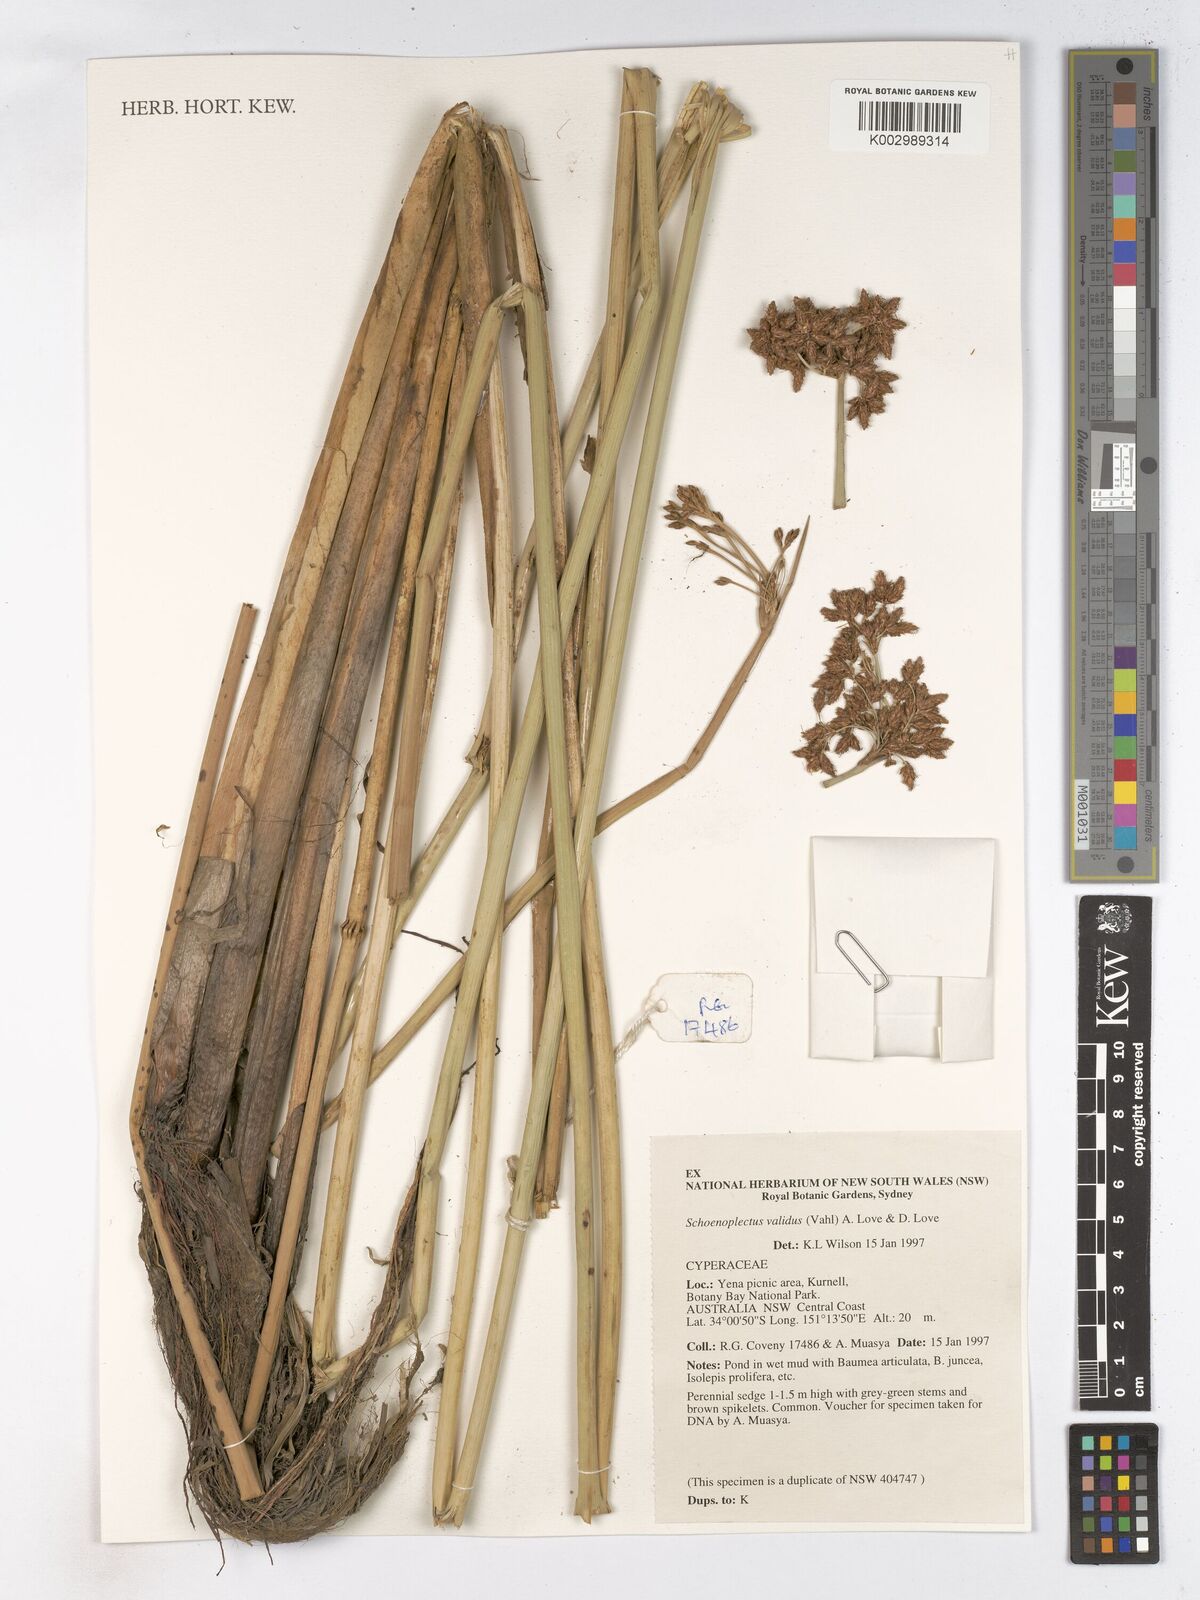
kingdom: Plantae
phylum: Tracheophyta
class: Liliopsida
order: Poales
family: Cyperaceae
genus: Schoenoplectus
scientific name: Schoenoplectus tabernaemontani
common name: Grey club-rush
